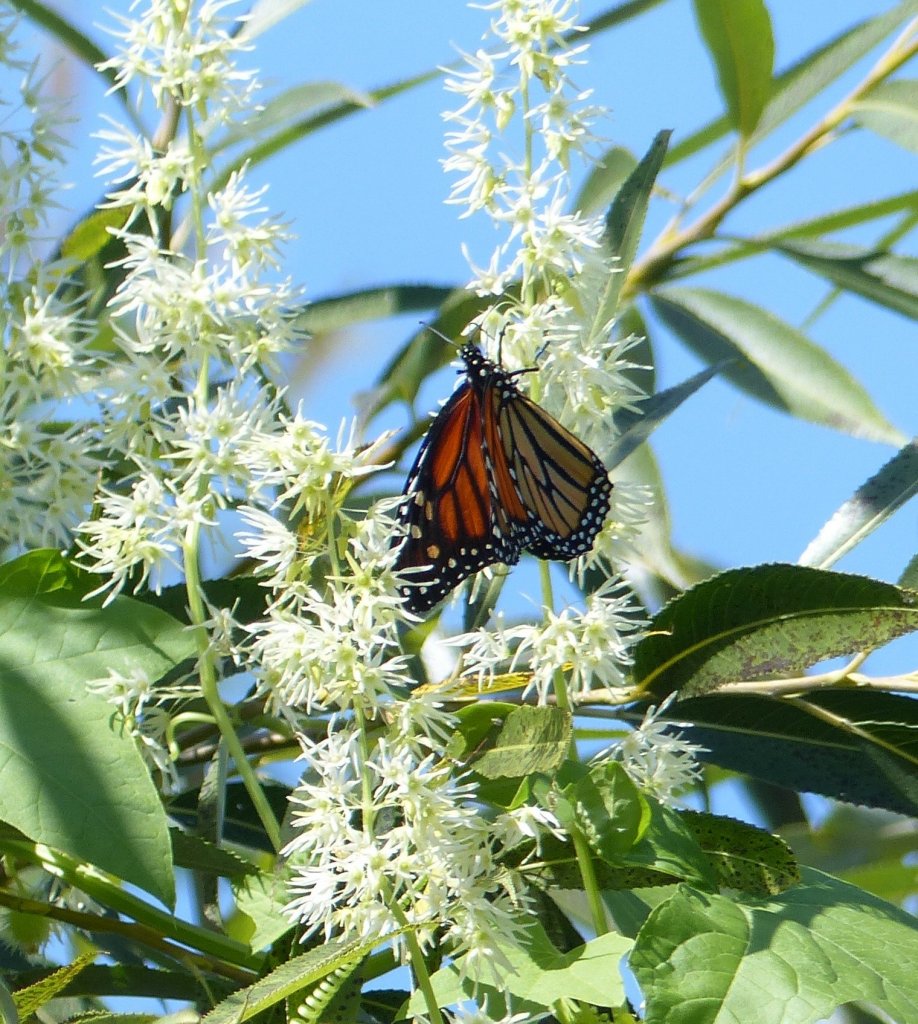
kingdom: Animalia
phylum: Arthropoda
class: Insecta
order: Lepidoptera
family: Nymphalidae
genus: Danaus
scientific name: Danaus plexippus
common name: Monarch
